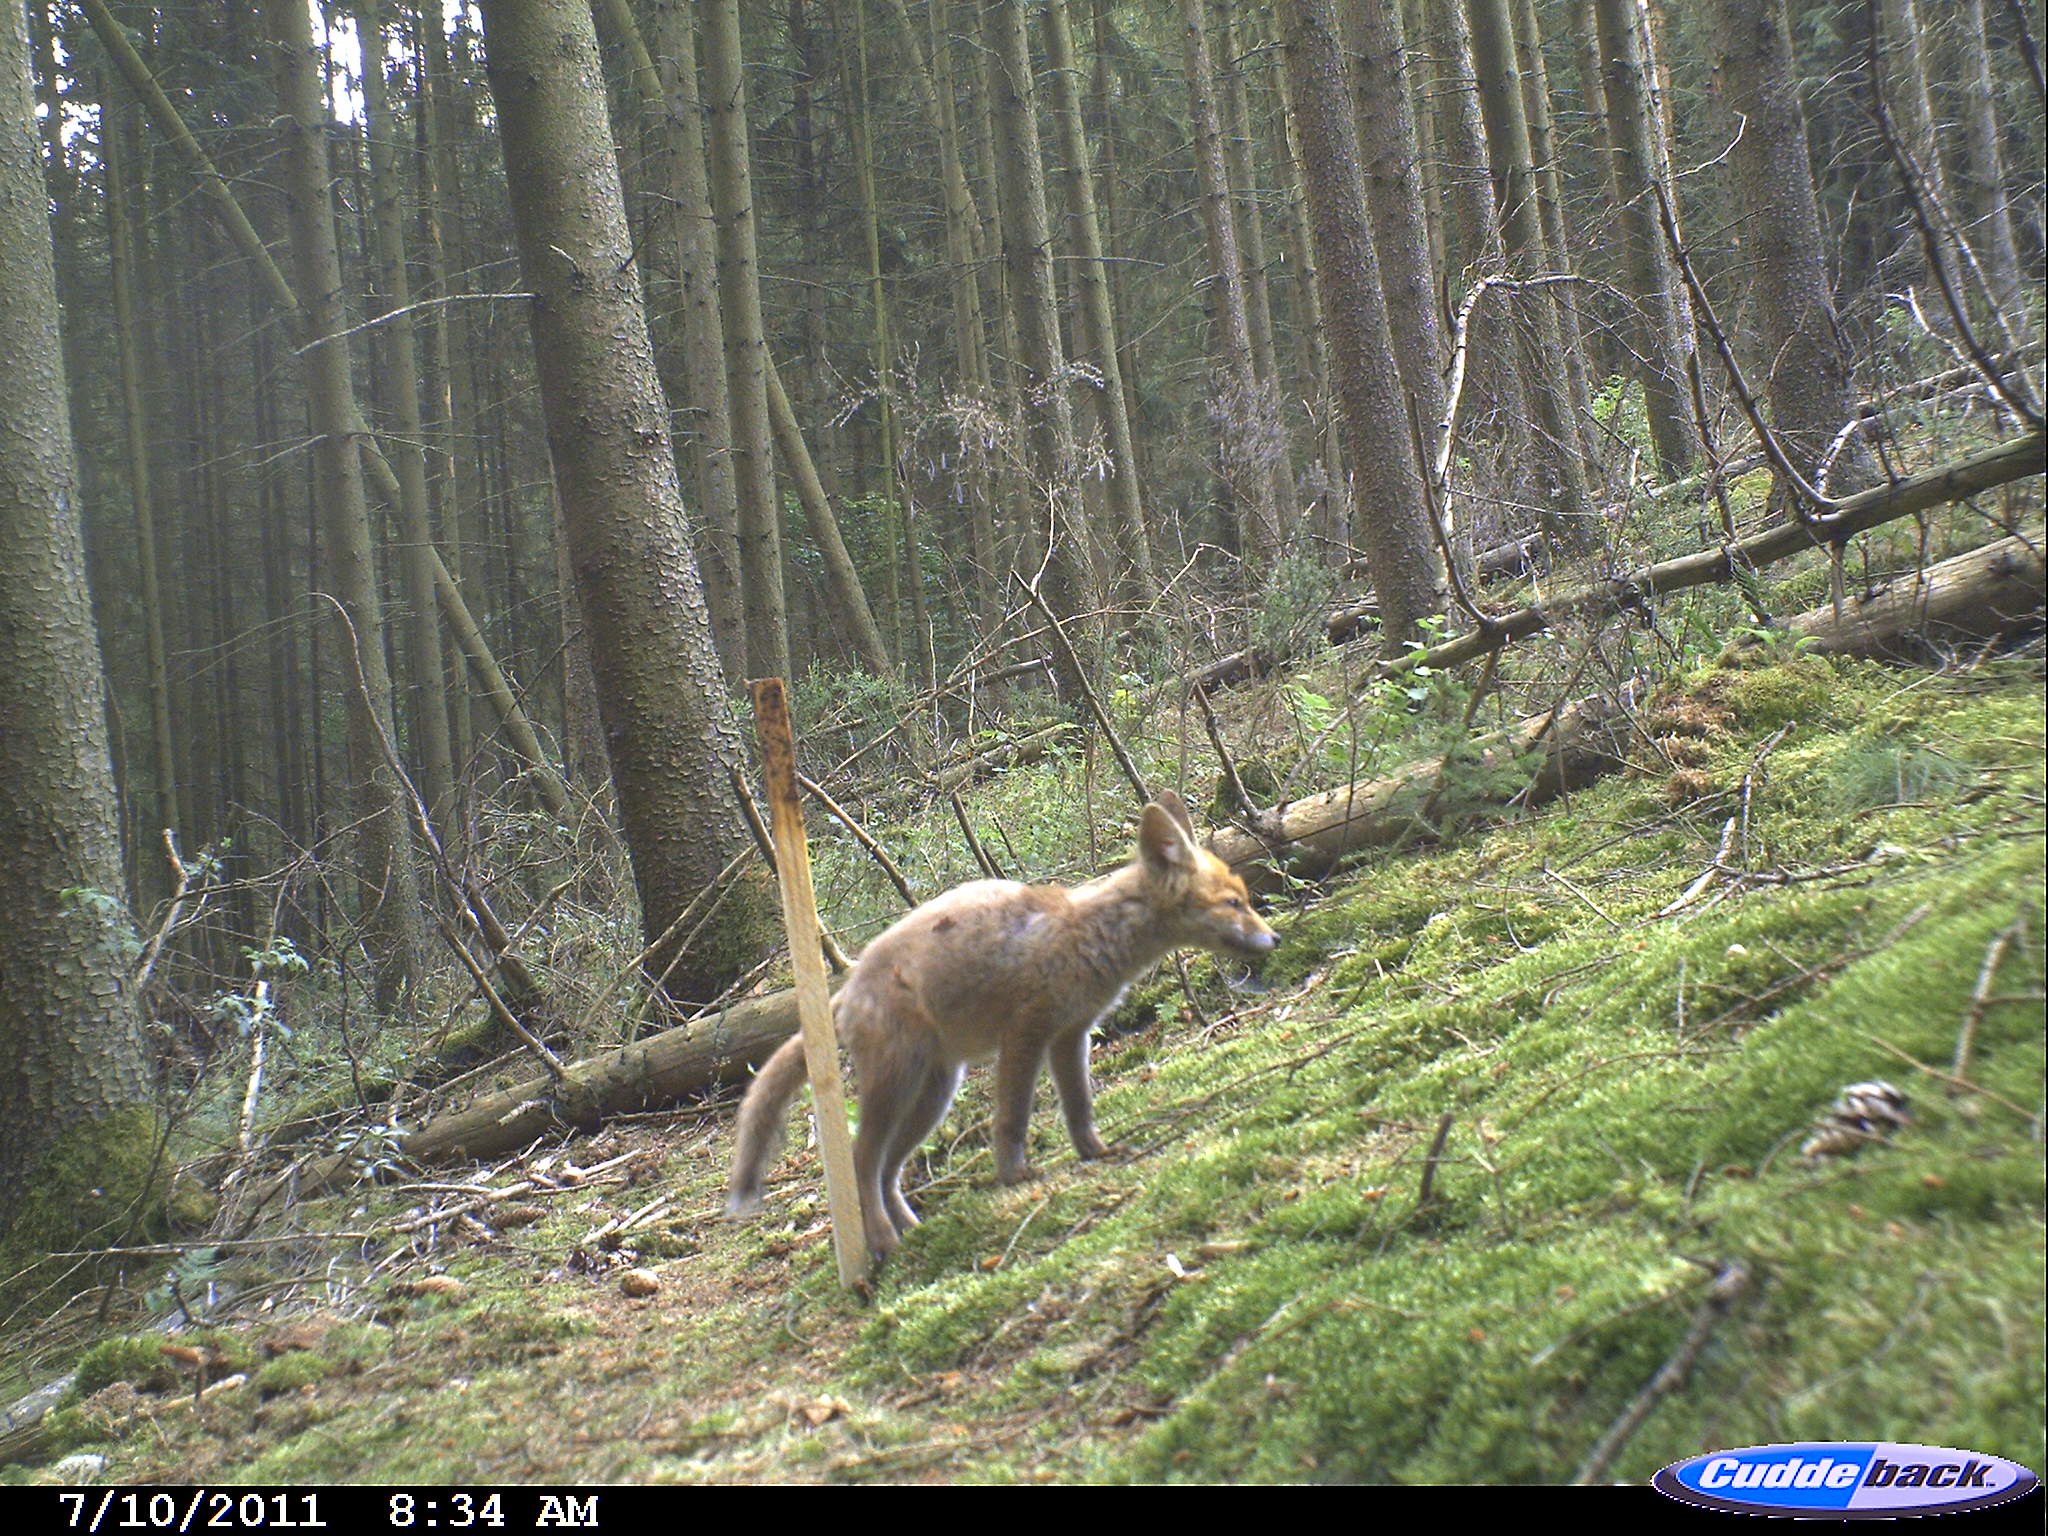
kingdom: Animalia
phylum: Chordata
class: Mammalia
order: Carnivora
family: Canidae
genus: Vulpes
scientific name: Vulpes vulpes
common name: Red fox
